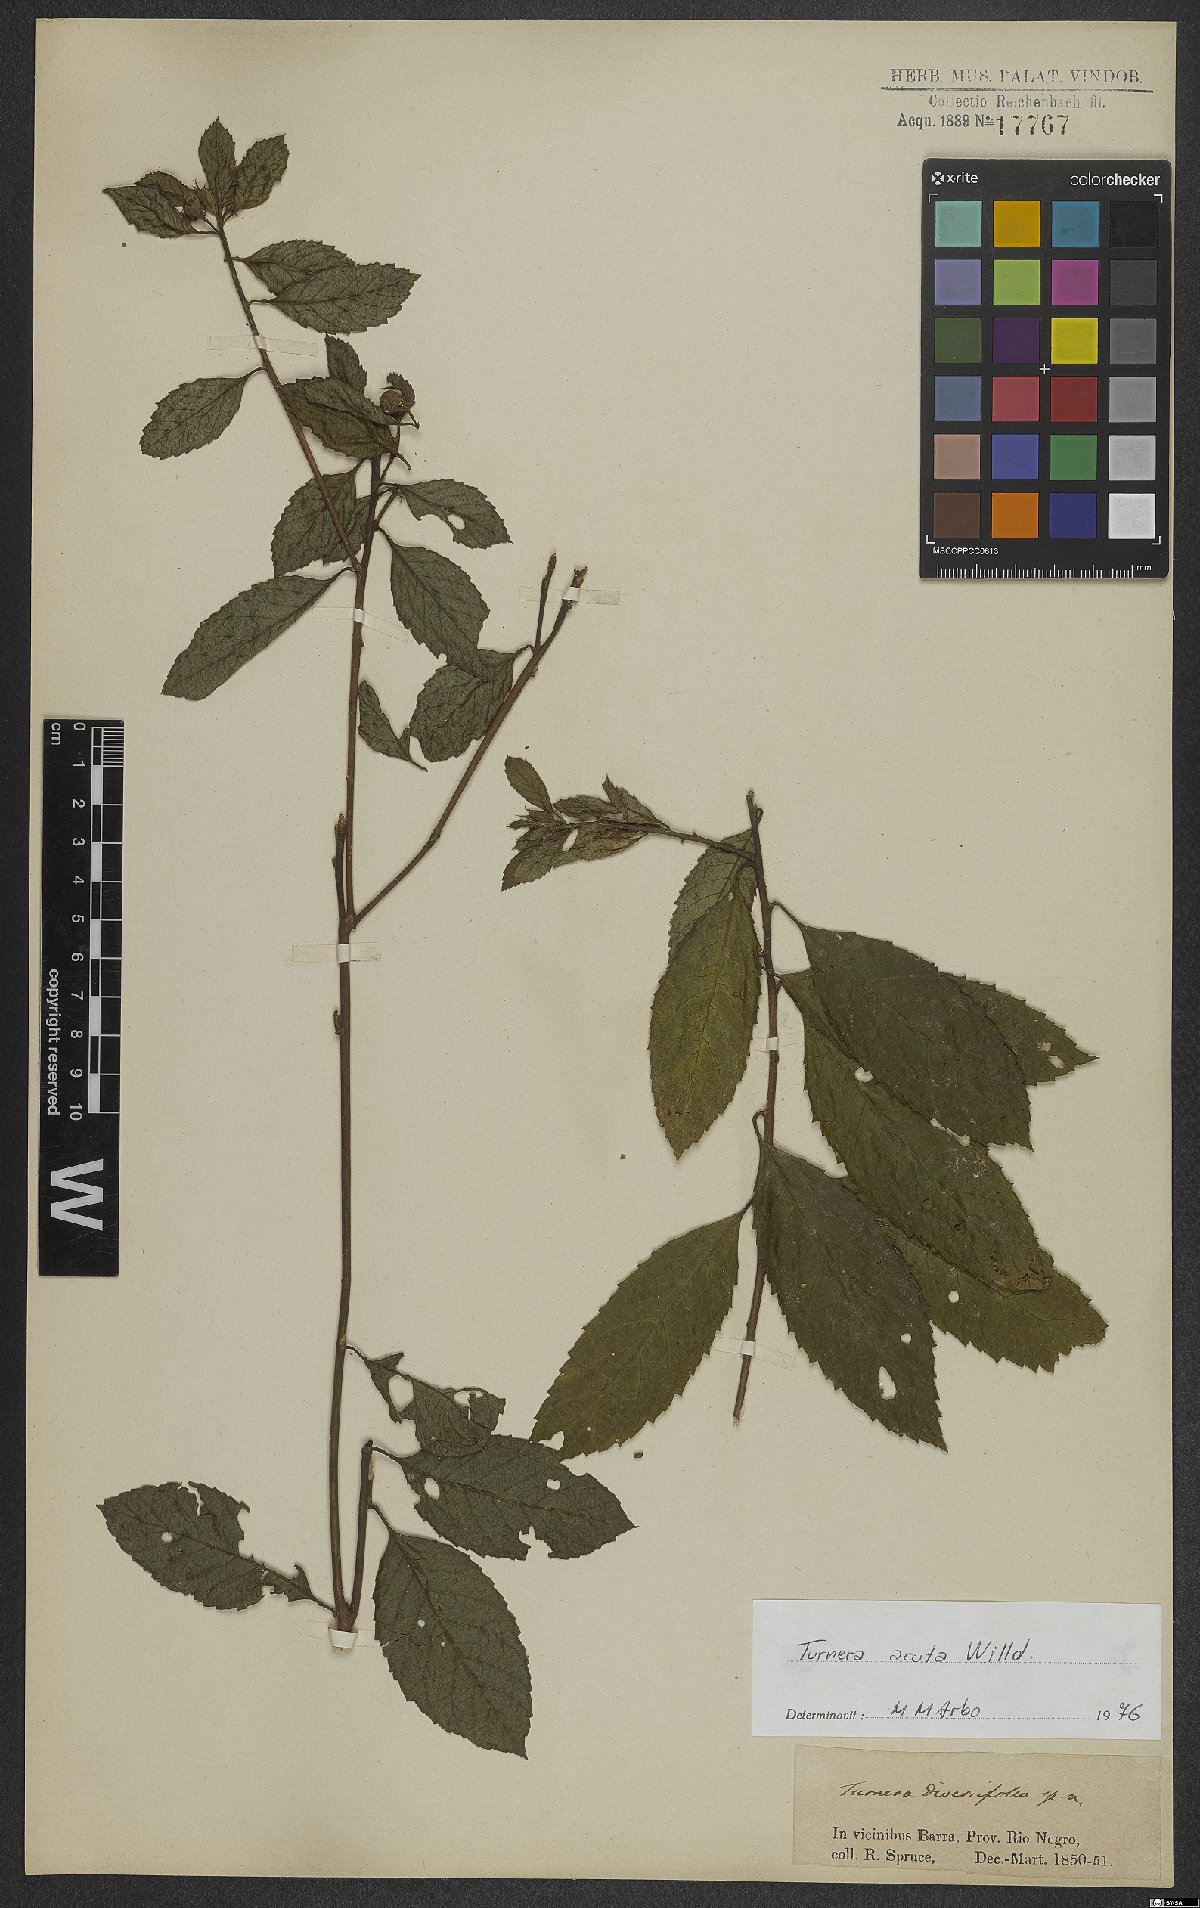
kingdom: Plantae
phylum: Tracheophyta
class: Magnoliopsida
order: Malpighiales
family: Turneraceae
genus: Turnera
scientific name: Turnera acuta
